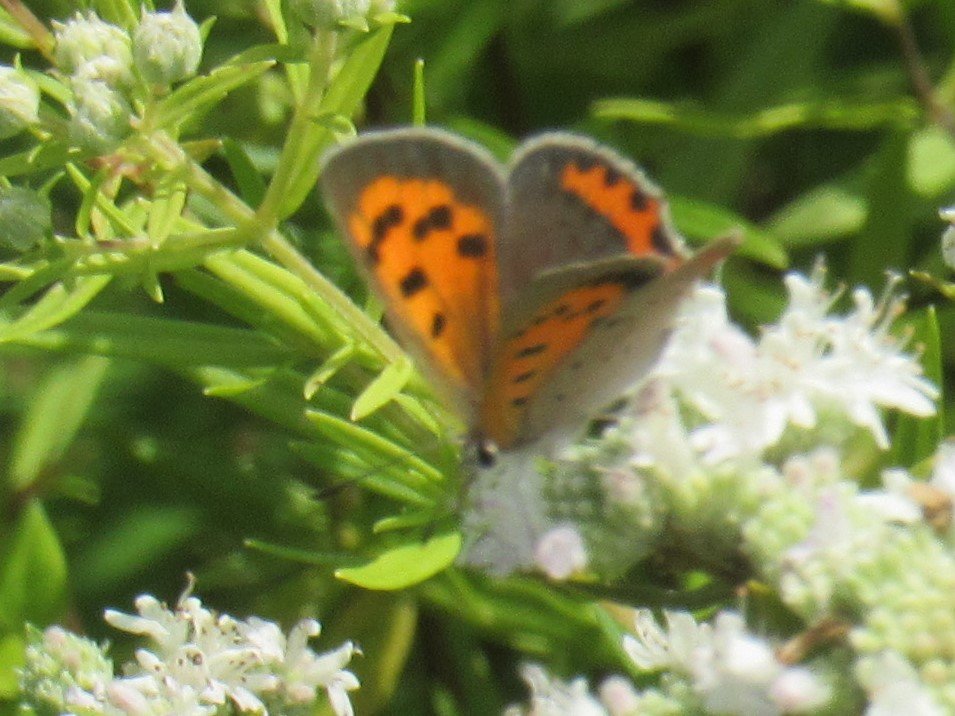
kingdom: Animalia
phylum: Arthropoda
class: Insecta
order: Lepidoptera
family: Lycaenidae
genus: Lycaena
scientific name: Lycaena phlaeas
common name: American Copper
